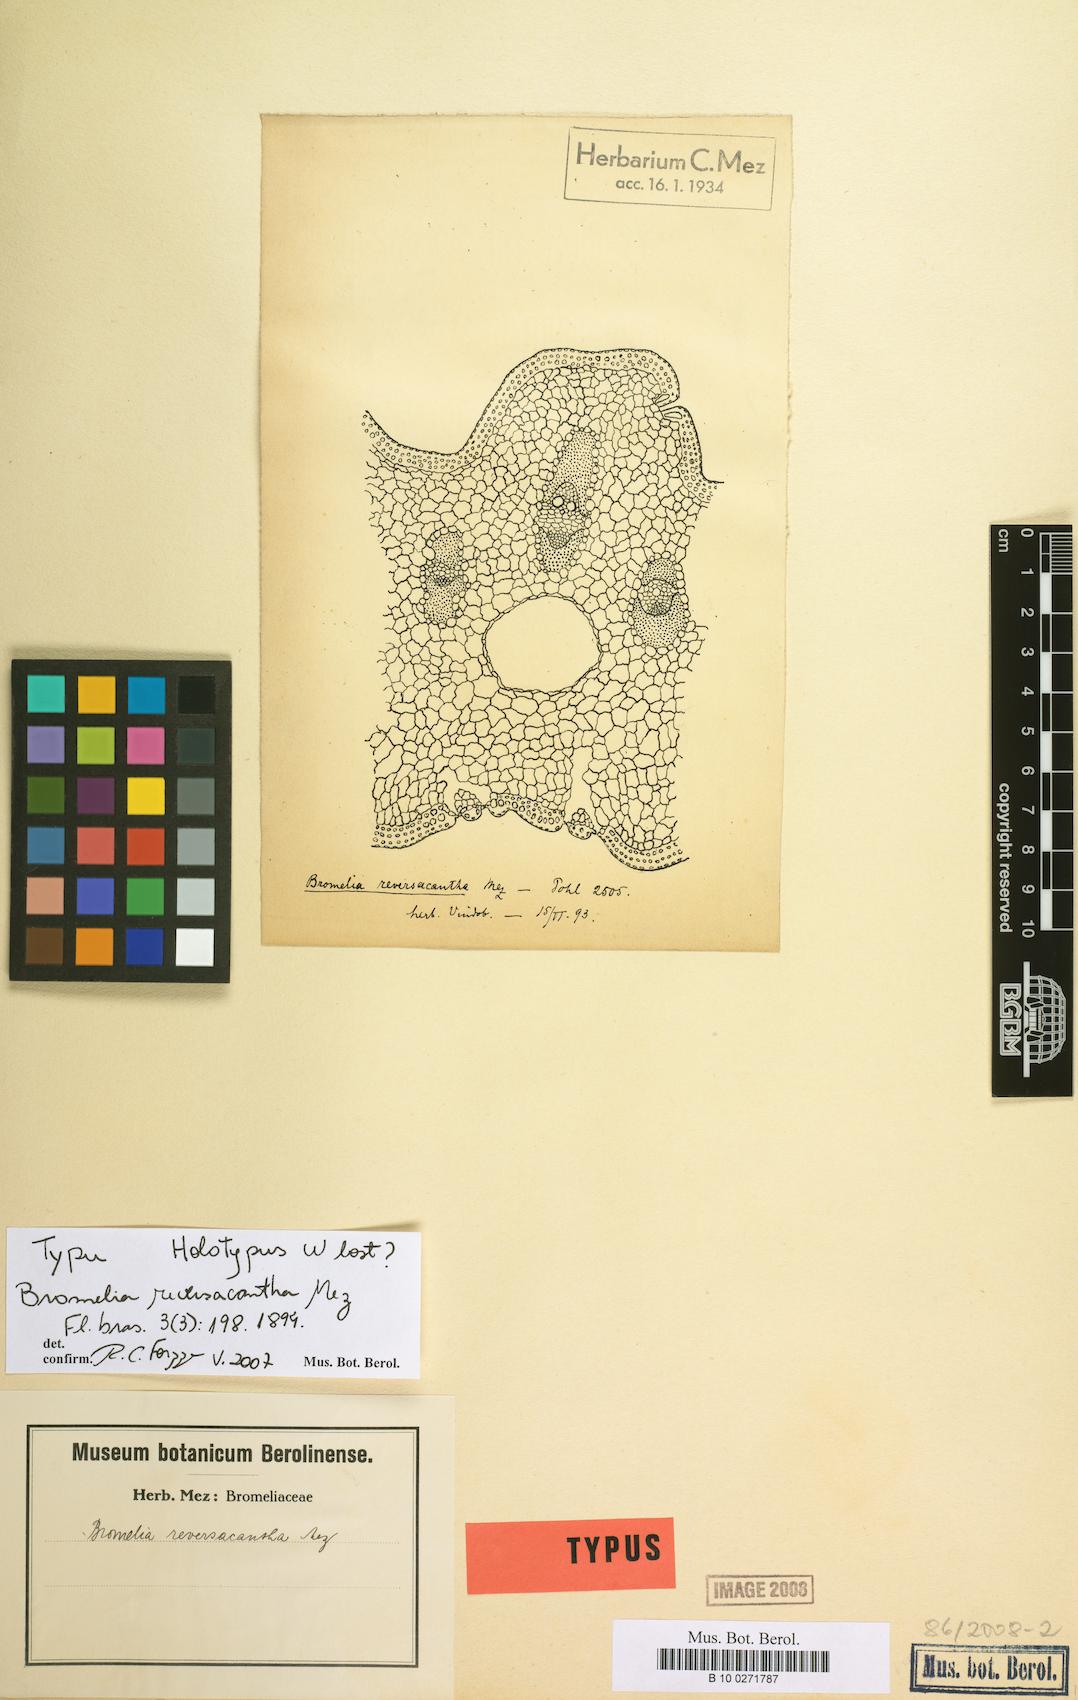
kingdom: Plantae
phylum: Tracheophyta
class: Liliopsida
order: Poales
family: Bromeliaceae
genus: Bromelia
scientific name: Bromelia reversacantha
